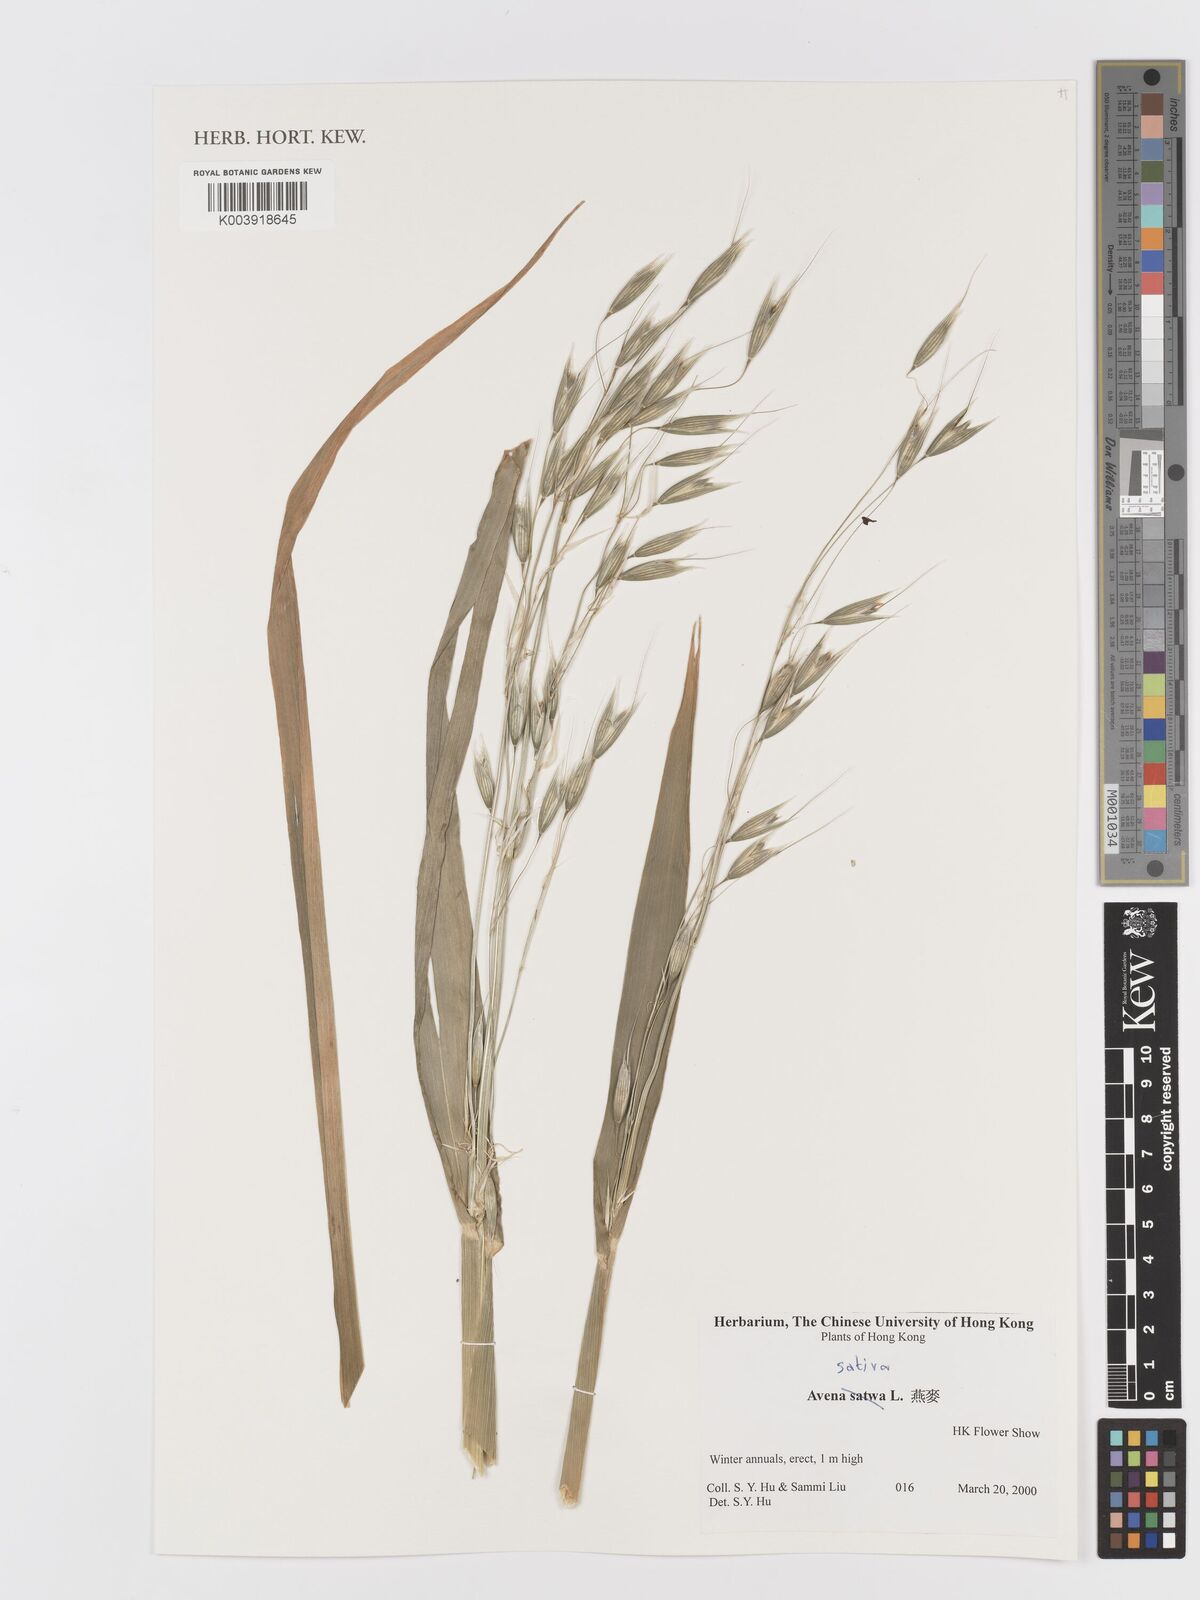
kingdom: Plantae
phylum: Tracheophyta
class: Liliopsida
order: Poales
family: Poaceae
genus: Avena
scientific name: Avena sativa
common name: Oat
